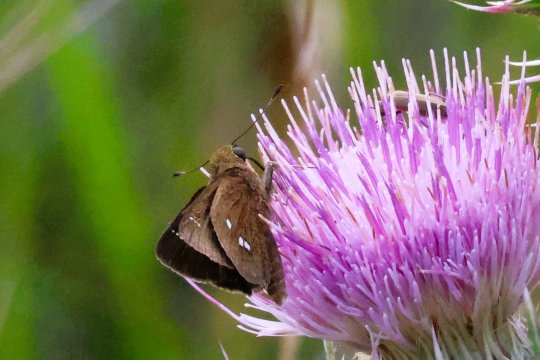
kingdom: Animalia
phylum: Arthropoda
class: Insecta
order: Lepidoptera
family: Hesperiidae
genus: Oligoria
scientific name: Oligoria maculata
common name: Twin-spot Skipper
